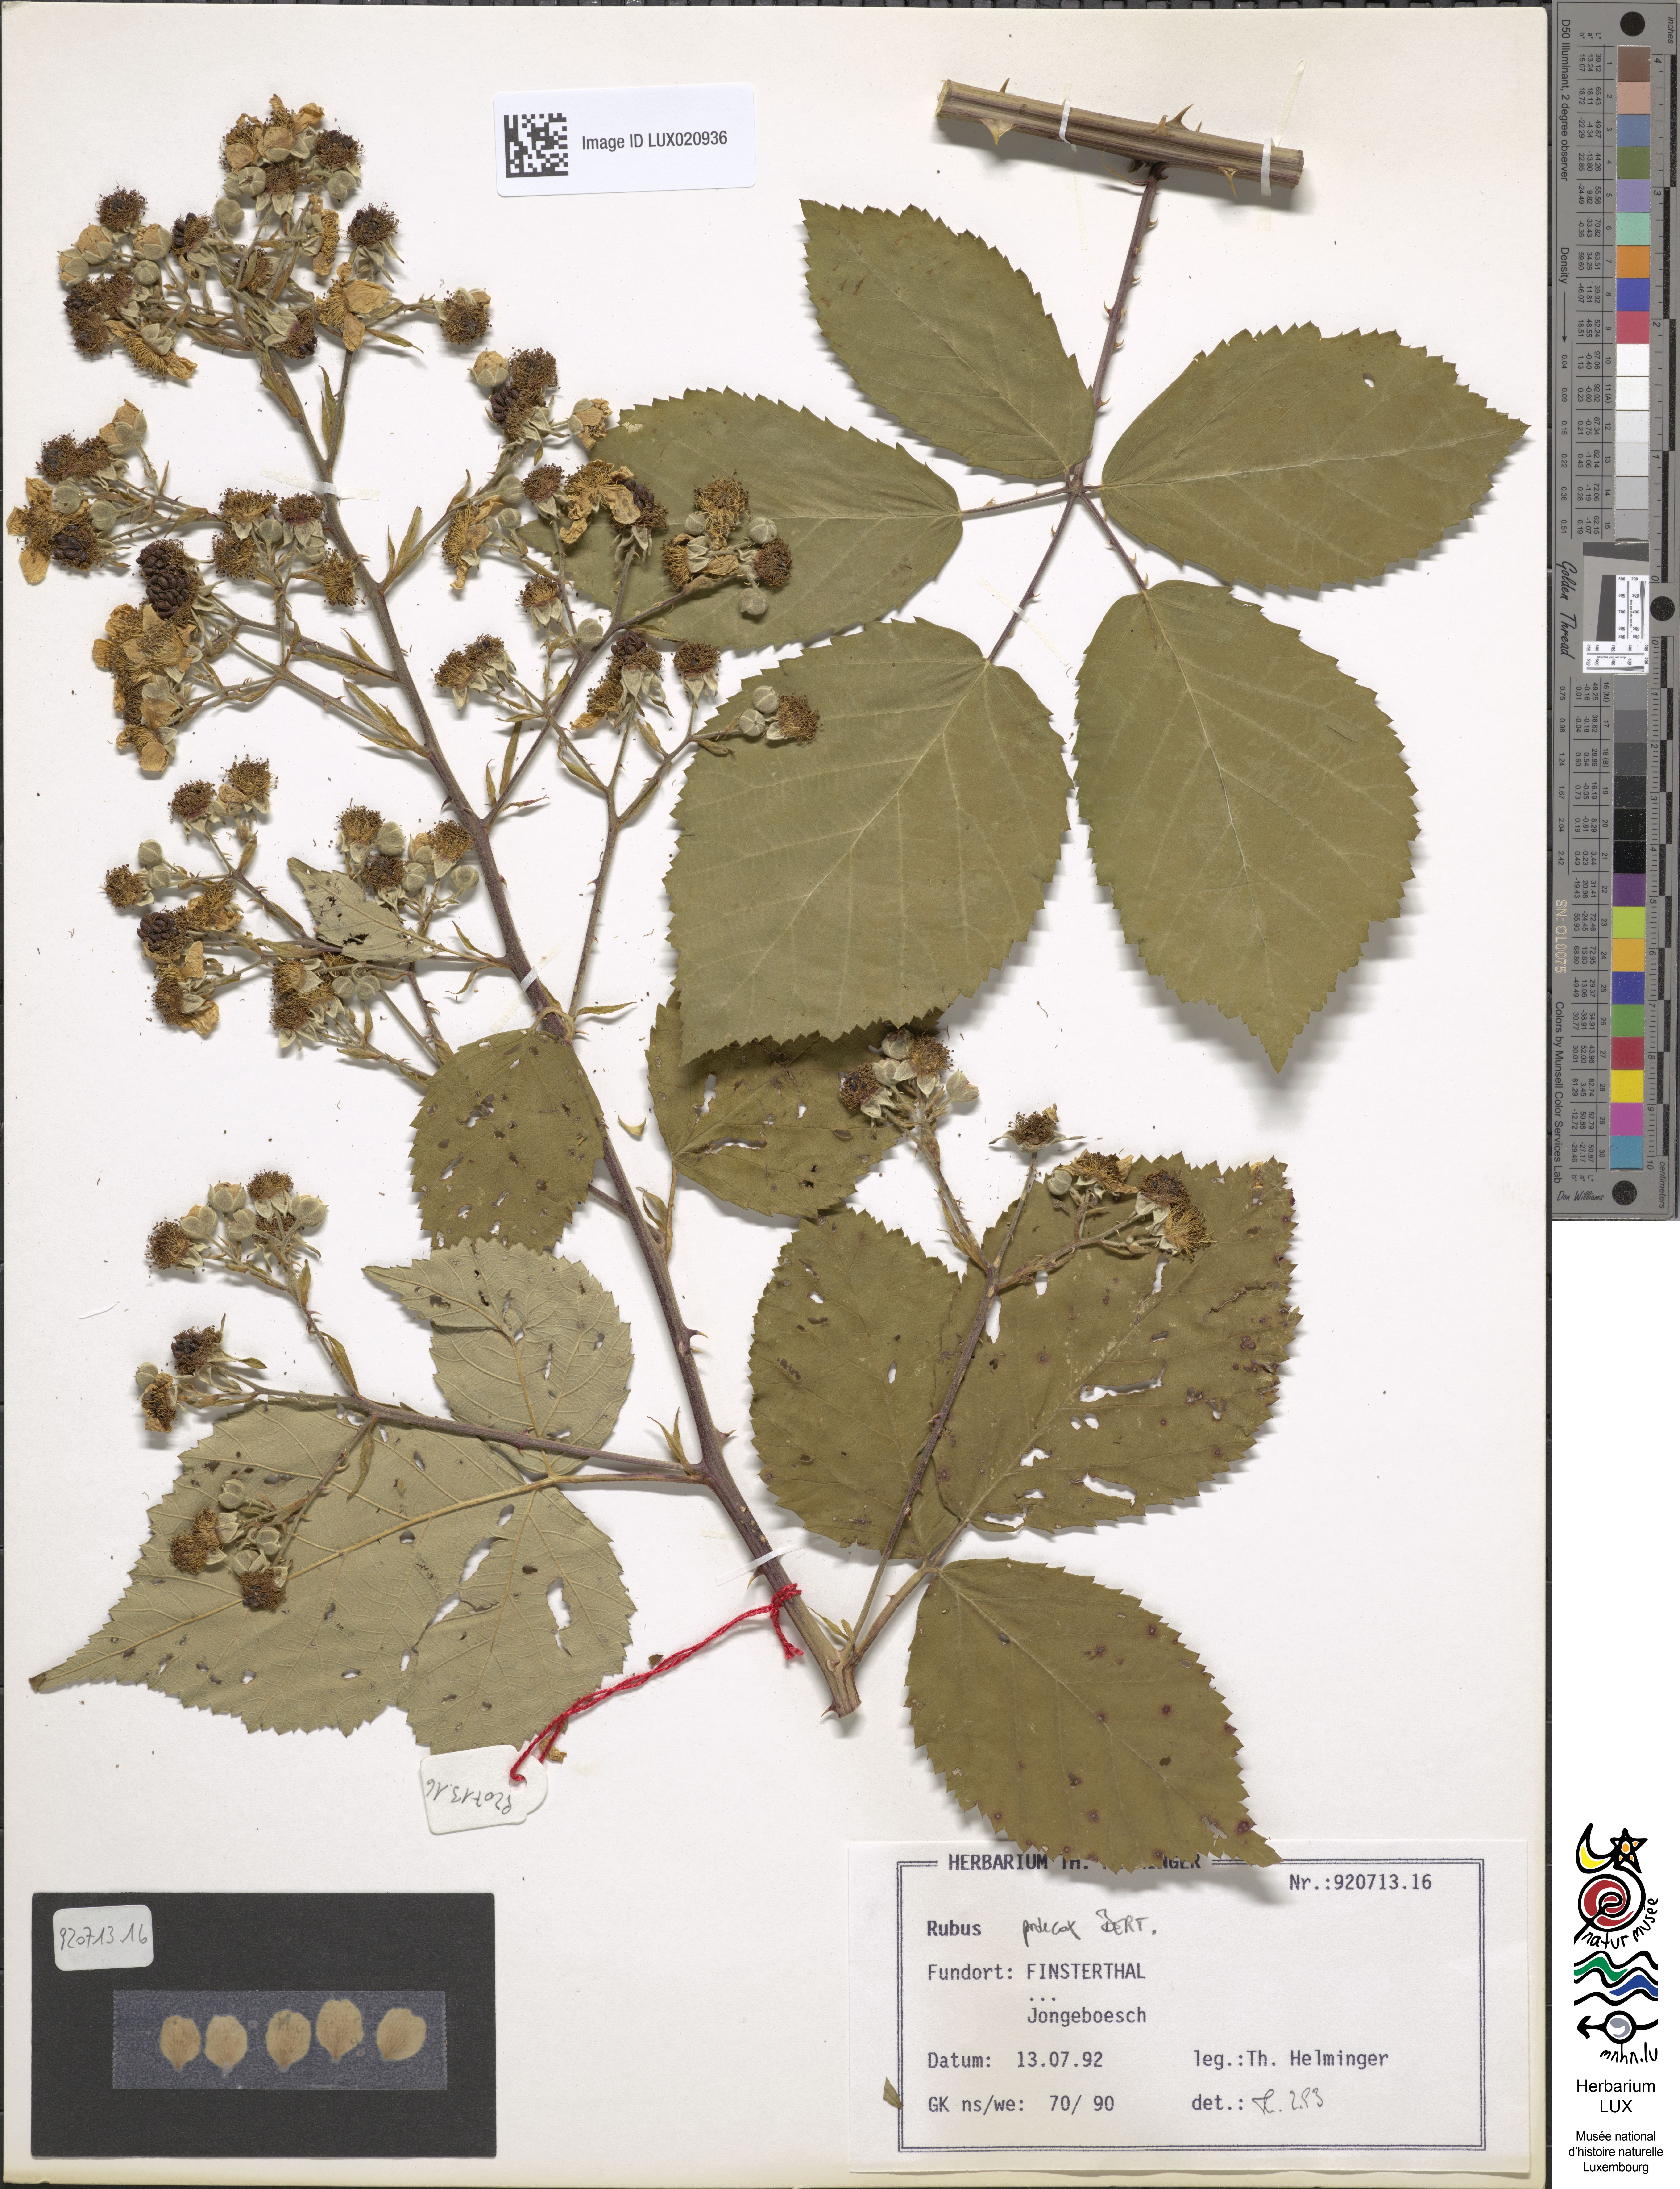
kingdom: Plantae
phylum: Tracheophyta
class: Magnoliopsida
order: Rosales
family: Rosaceae
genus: Rubus
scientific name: Rubus praecox
